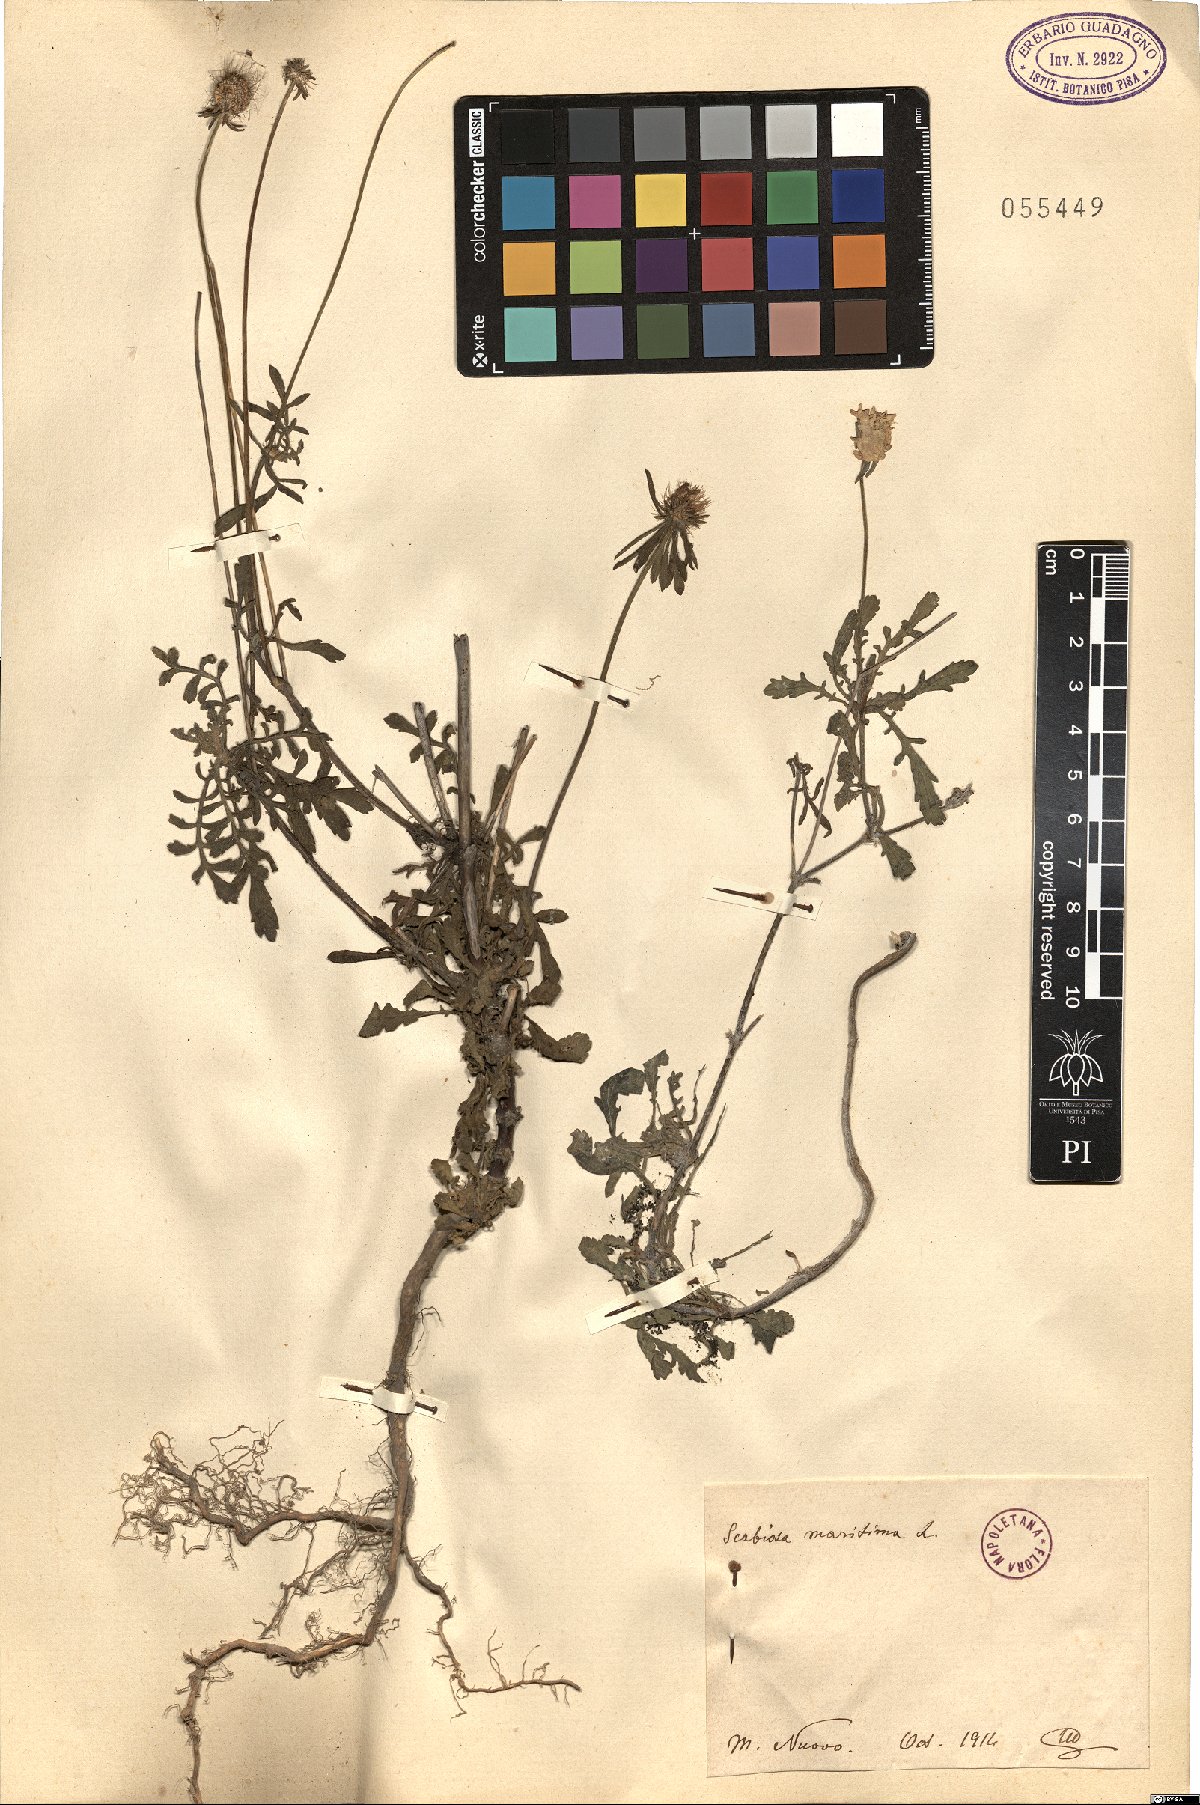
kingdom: Plantae
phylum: Tracheophyta
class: Magnoliopsida
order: Dipsacales
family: Caprifoliaceae
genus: Sixalix
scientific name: Sixalix maritima
